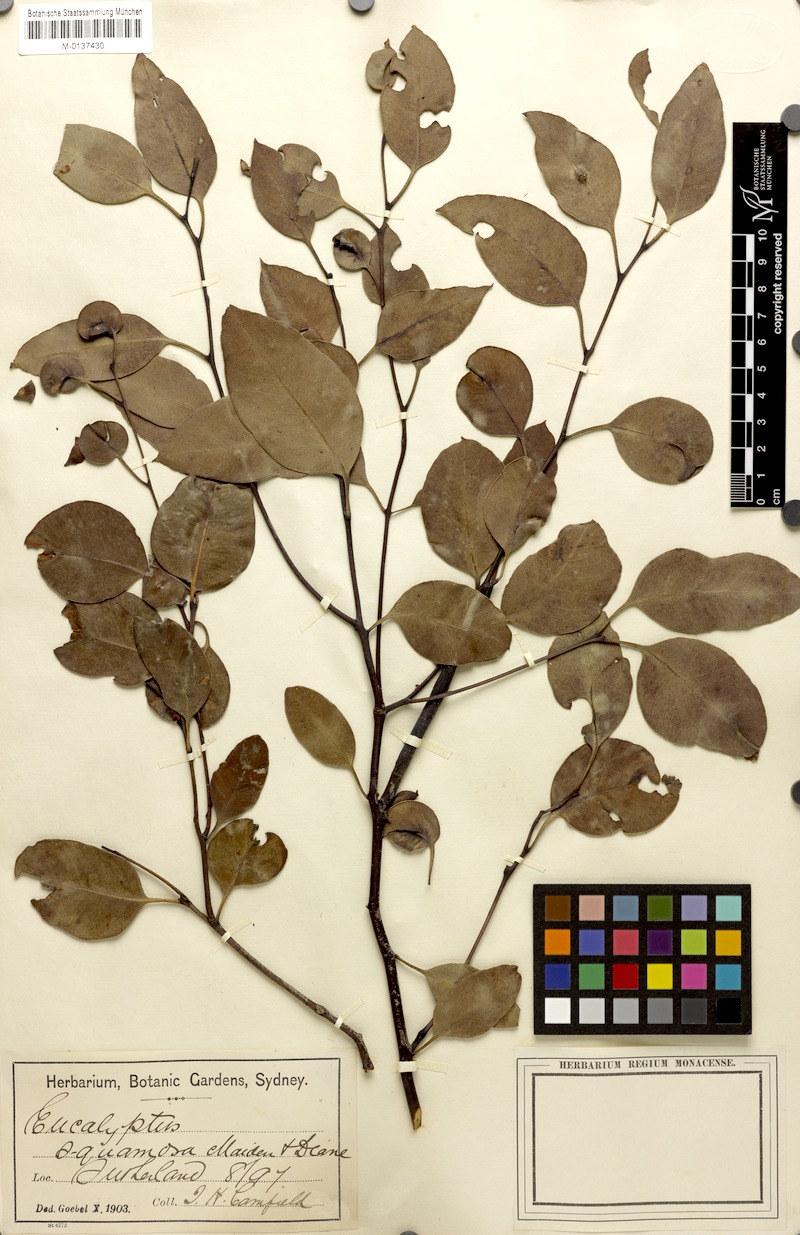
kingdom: Plantae
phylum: Tracheophyta
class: Magnoliopsida
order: Myrtales
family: Myrtaceae
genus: Eucalyptus
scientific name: Eucalyptus squamosa
